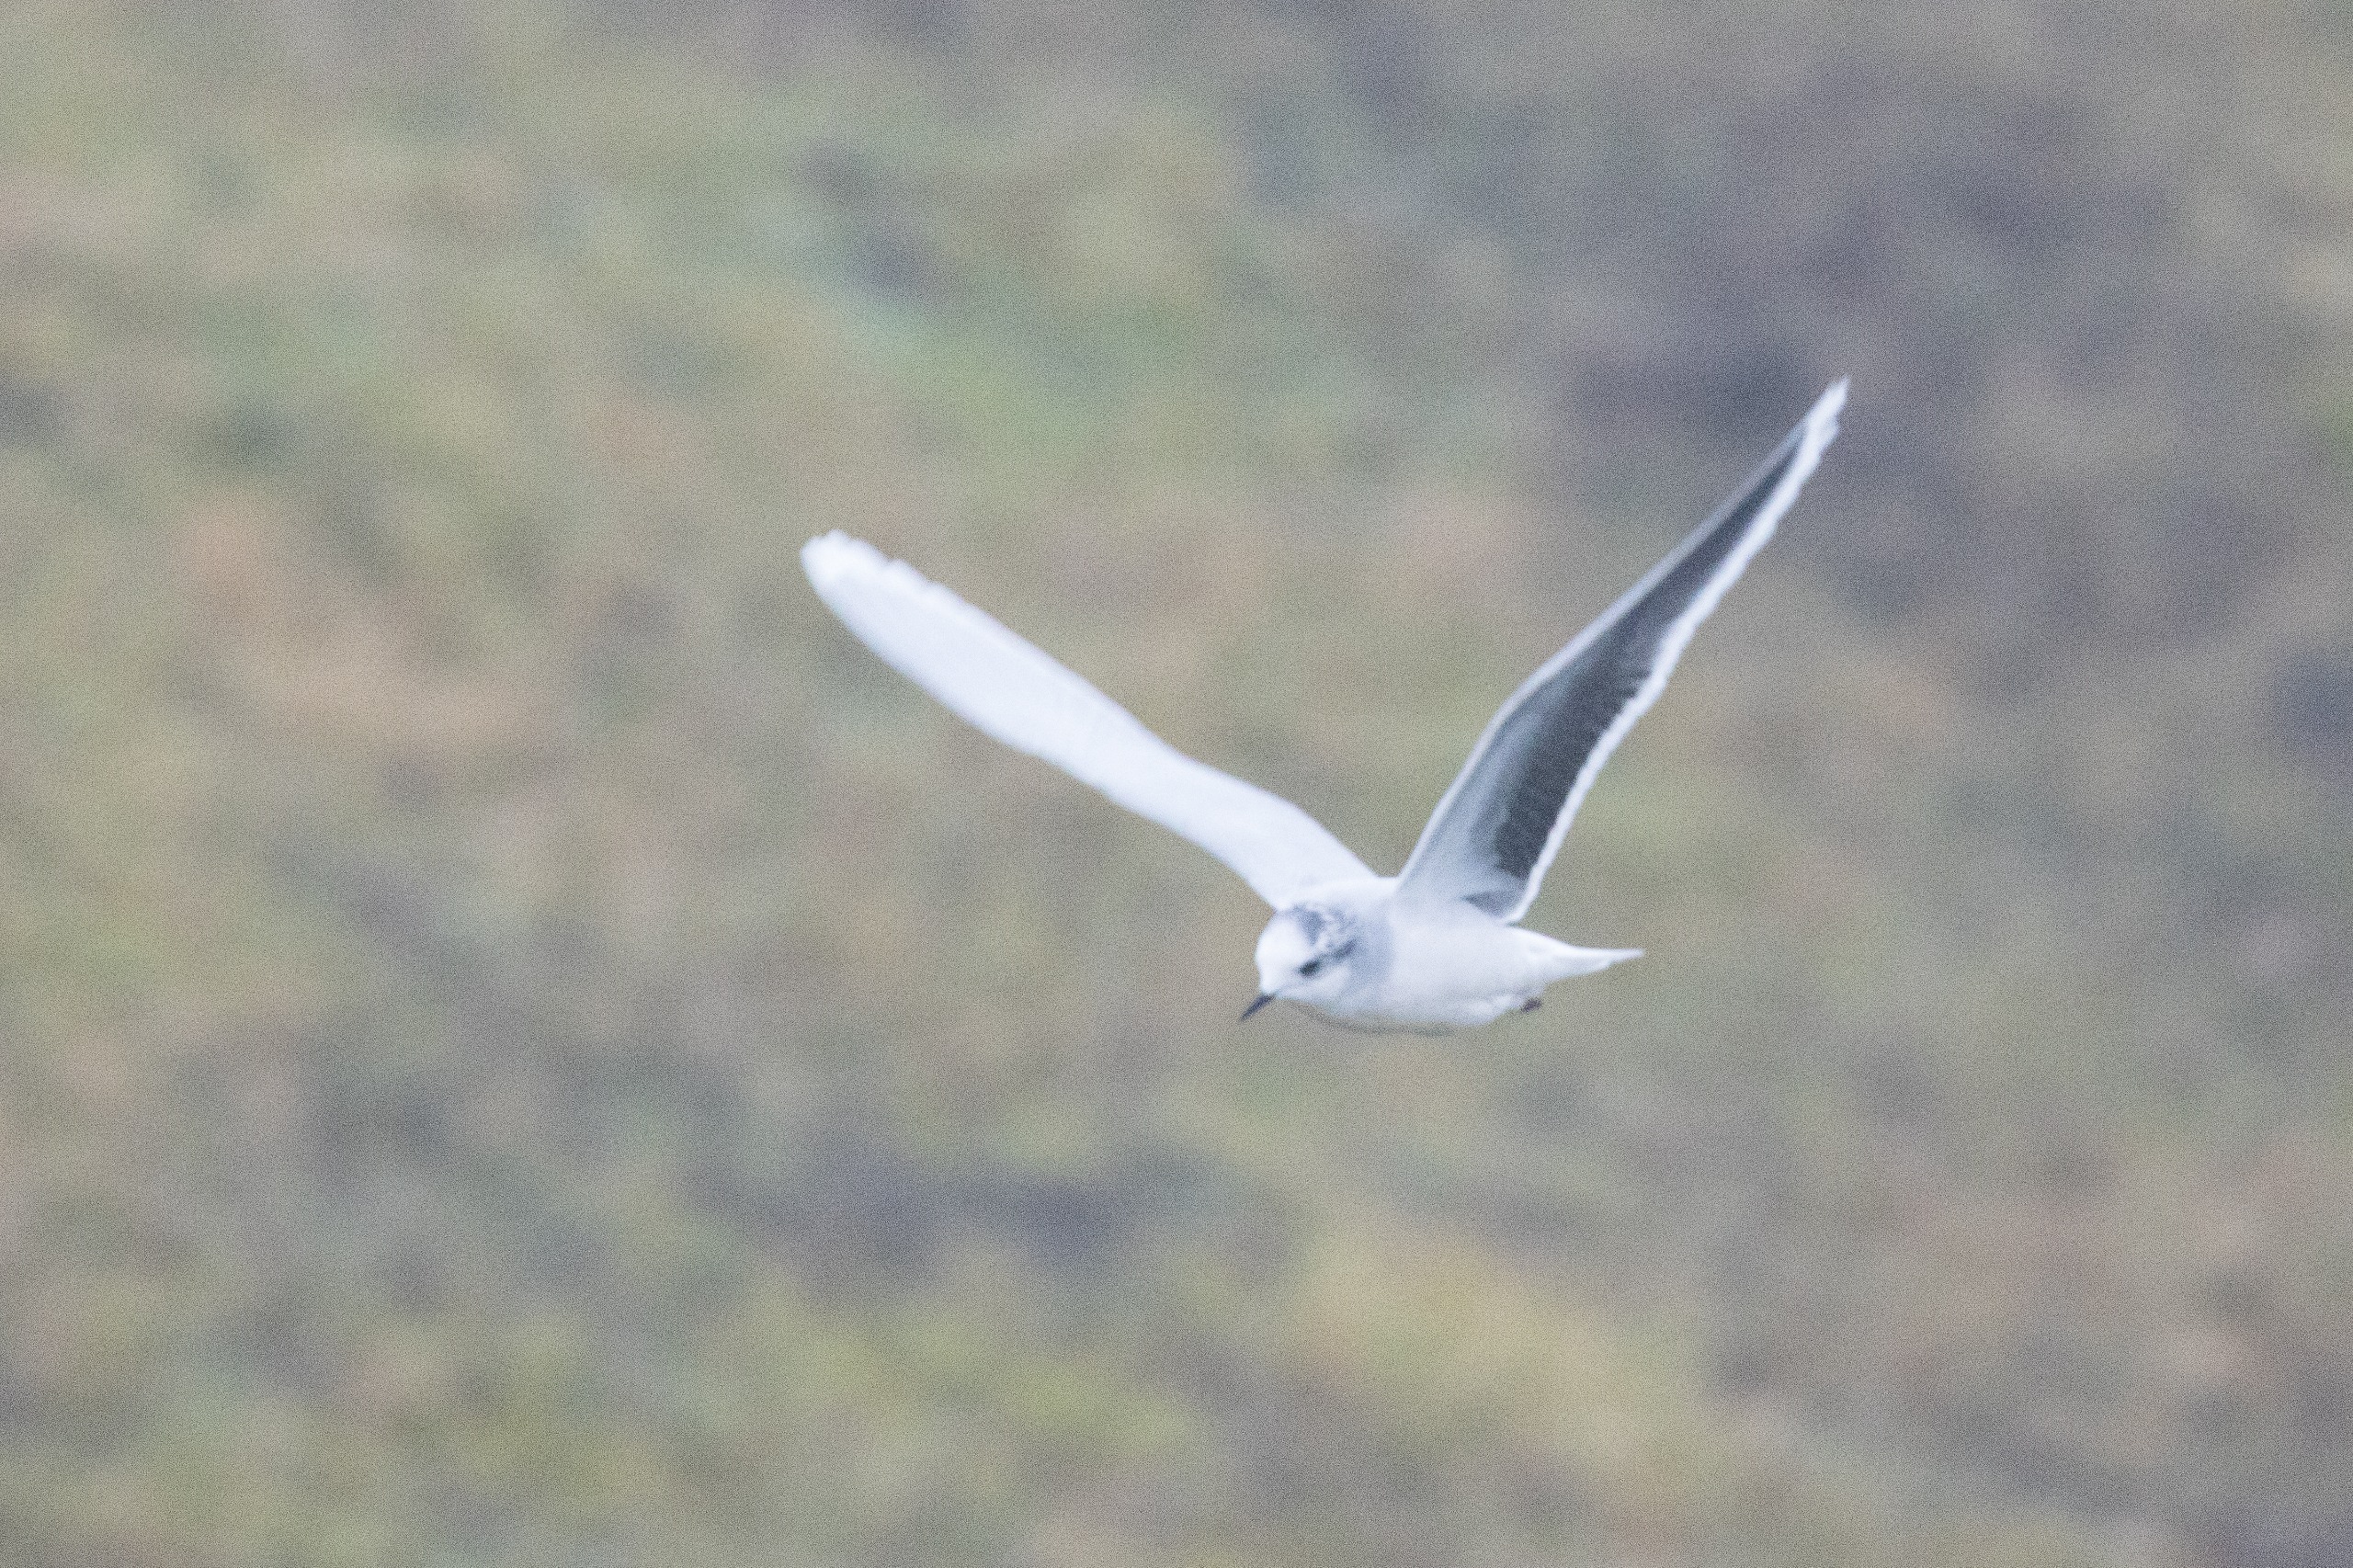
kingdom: Animalia
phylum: Chordata
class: Aves
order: Charadriiformes
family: Laridae
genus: Hydrocoloeus
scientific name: Hydrocoloeus minutus
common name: Dværgmåge
